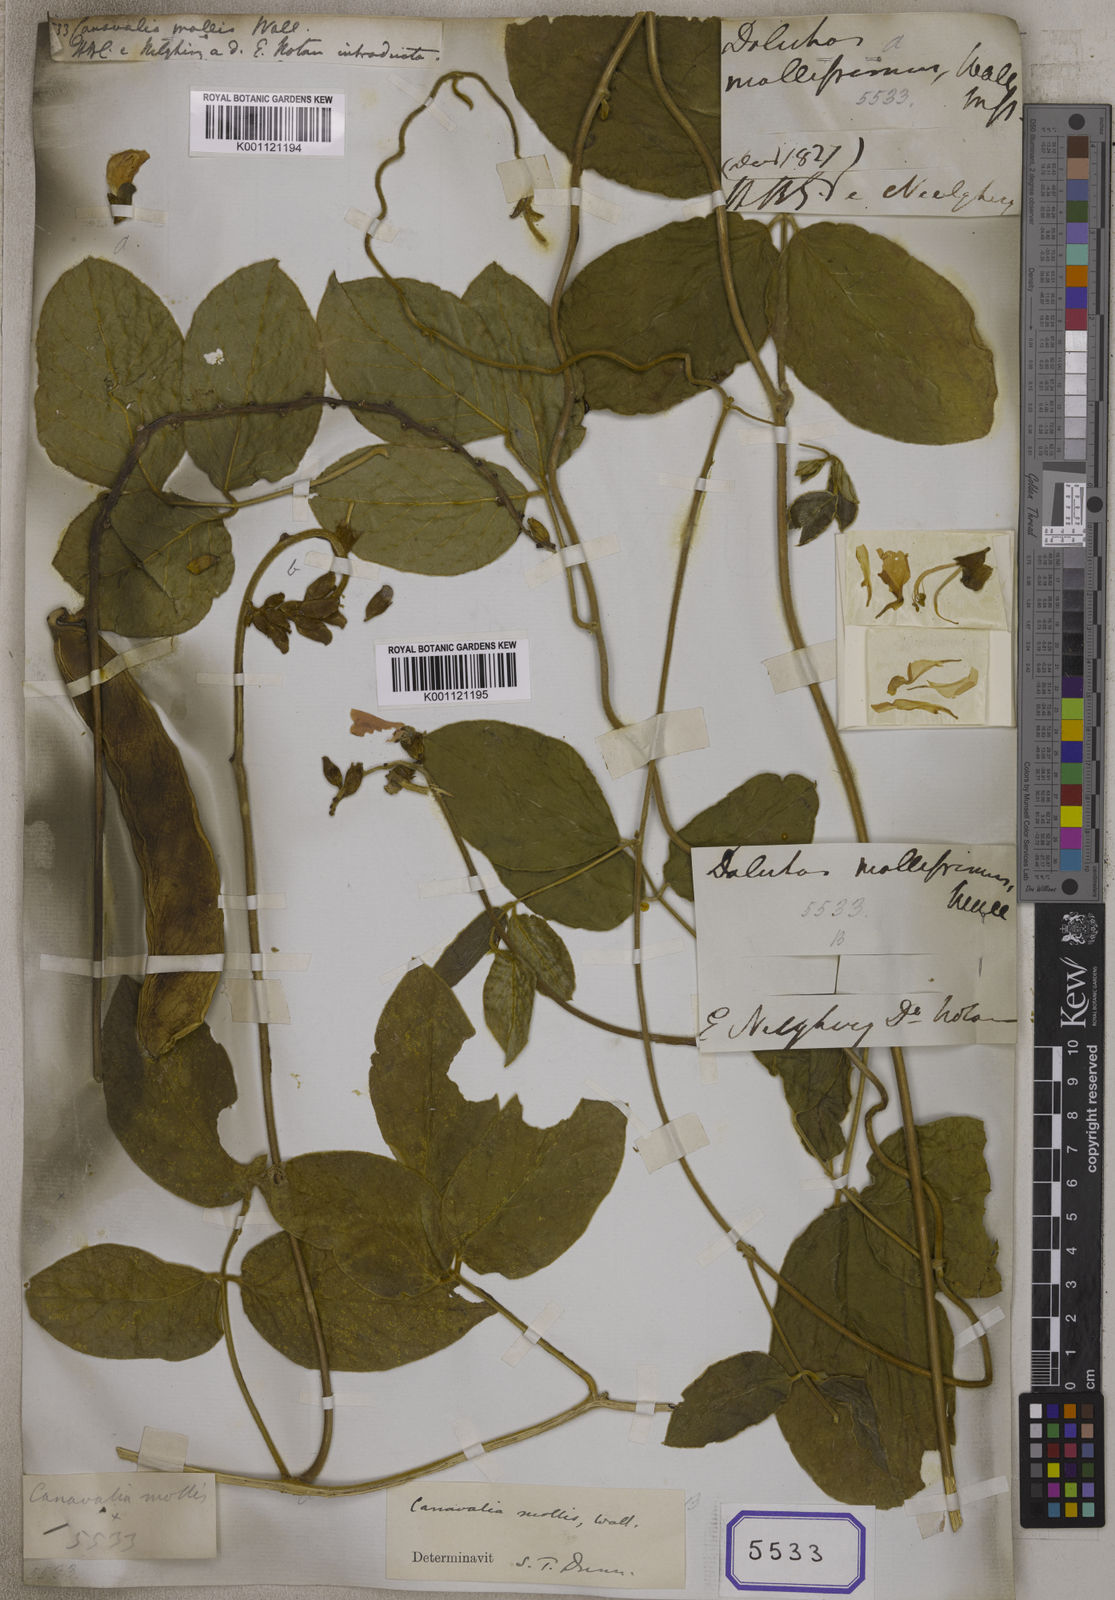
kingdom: Plantae
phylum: Tracheophyta
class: Magnoliopsida
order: Fabales
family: Fabaceae
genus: Canavalia
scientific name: Canavalia
